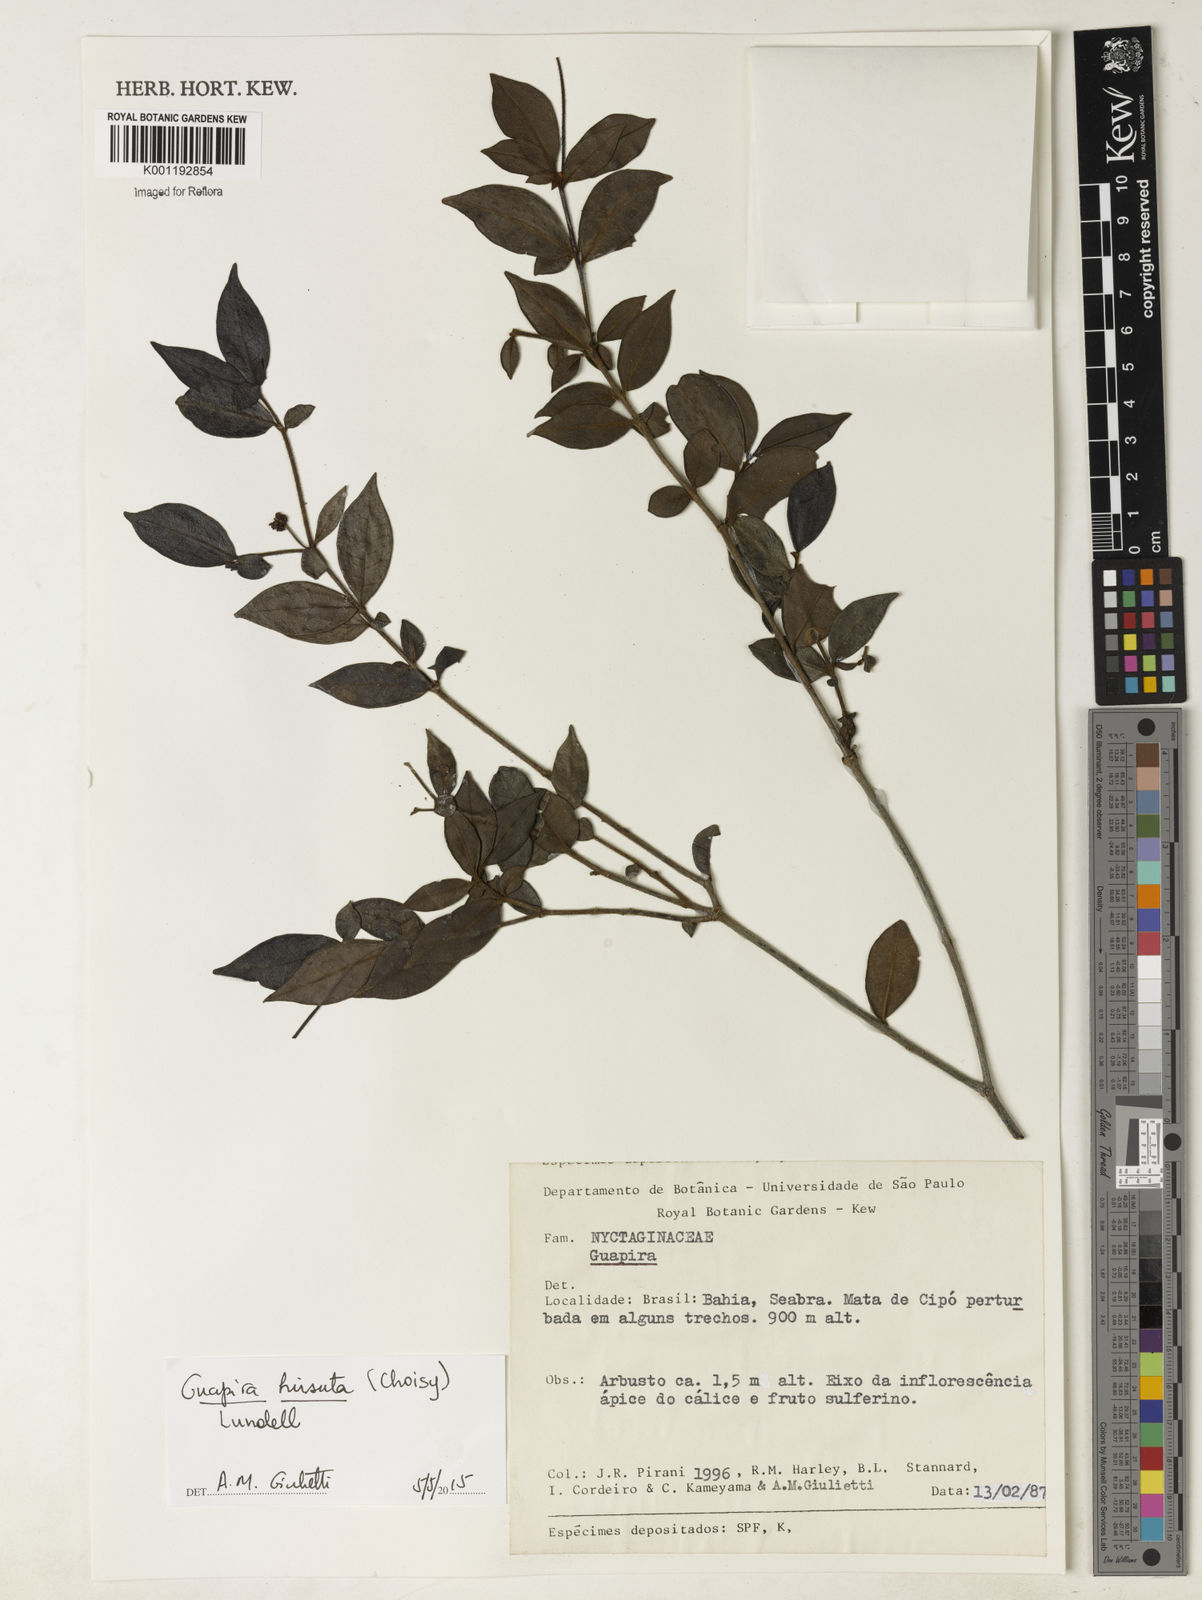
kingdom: Plantae
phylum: Tracheophyta
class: Magnoliopsida
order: Caryophyllales
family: Nyctaginaceae
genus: Guapira
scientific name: Guapira hirsuta
